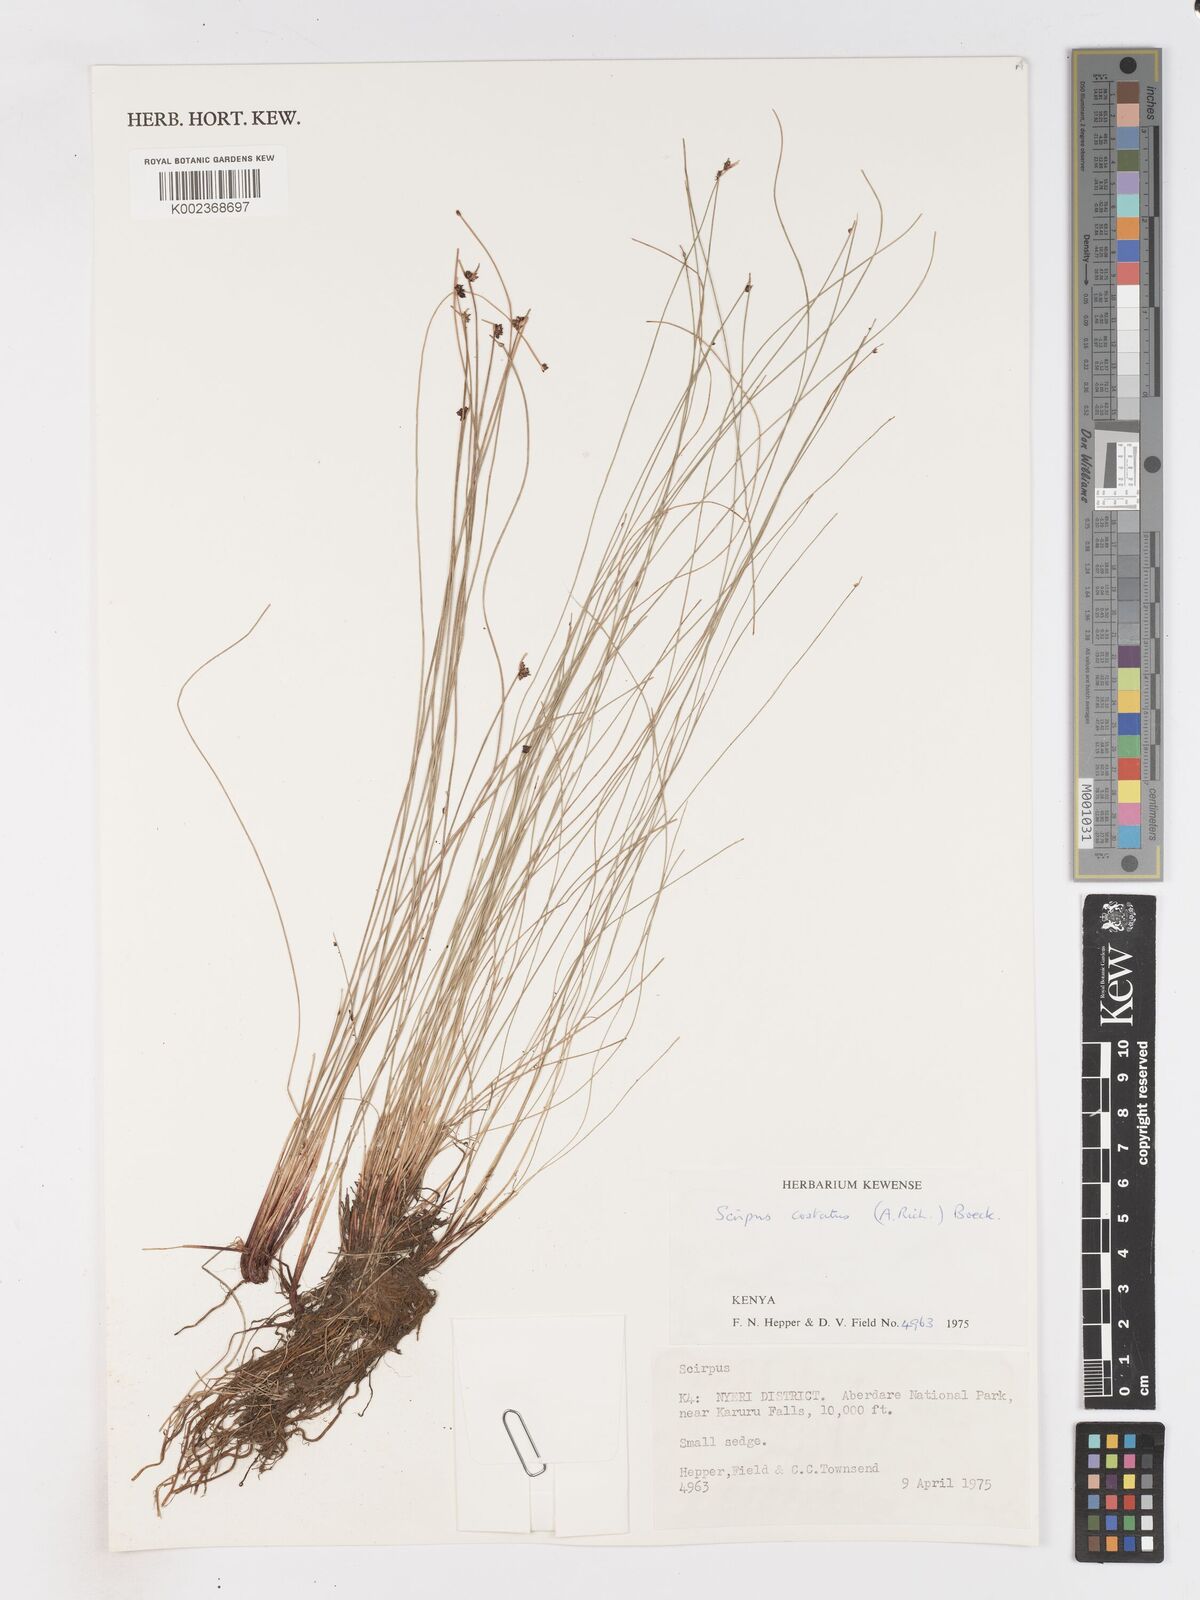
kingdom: Plantae
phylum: Tracheophyta
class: Liliopsida
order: Poales
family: Cyperaceae
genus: Isolepis
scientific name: Isolepis costata
